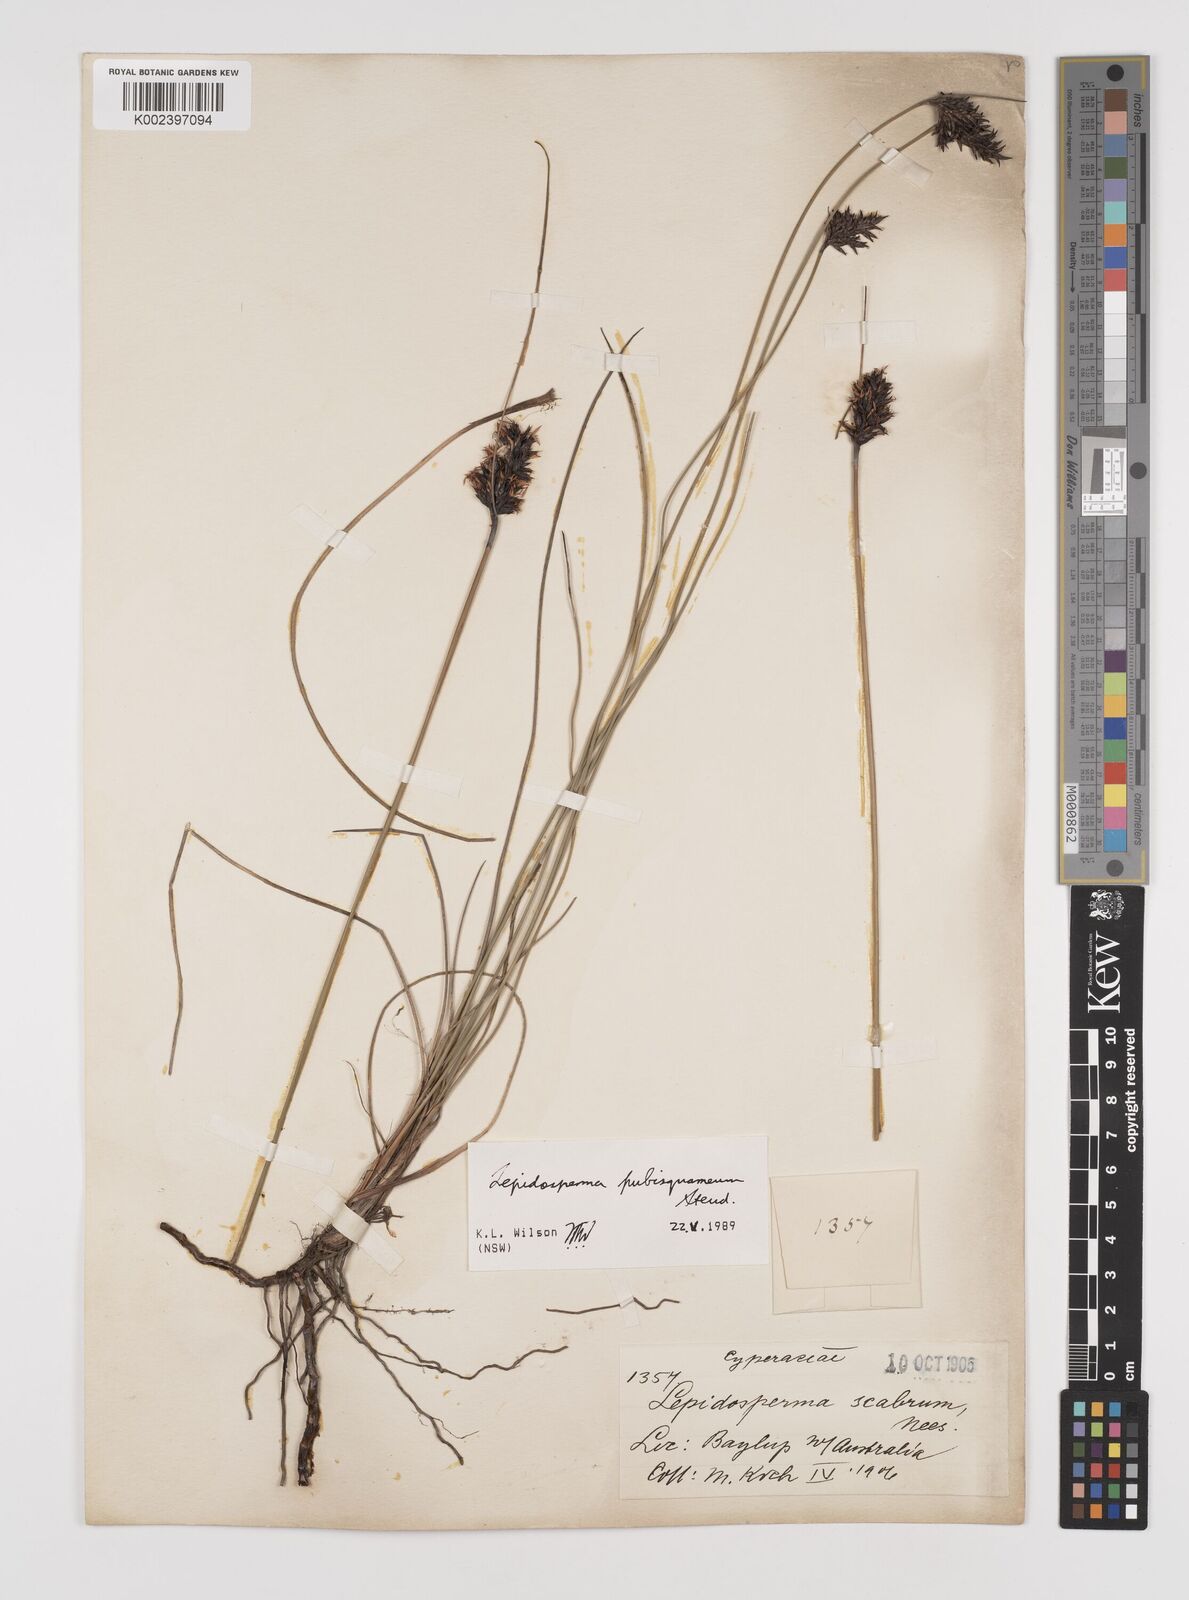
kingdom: Plantae
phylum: Tracheophyta
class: Liliopsida
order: Poales
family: Cyperaceae
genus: Lepidosperma
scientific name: Lepidosperma pubisquameum
